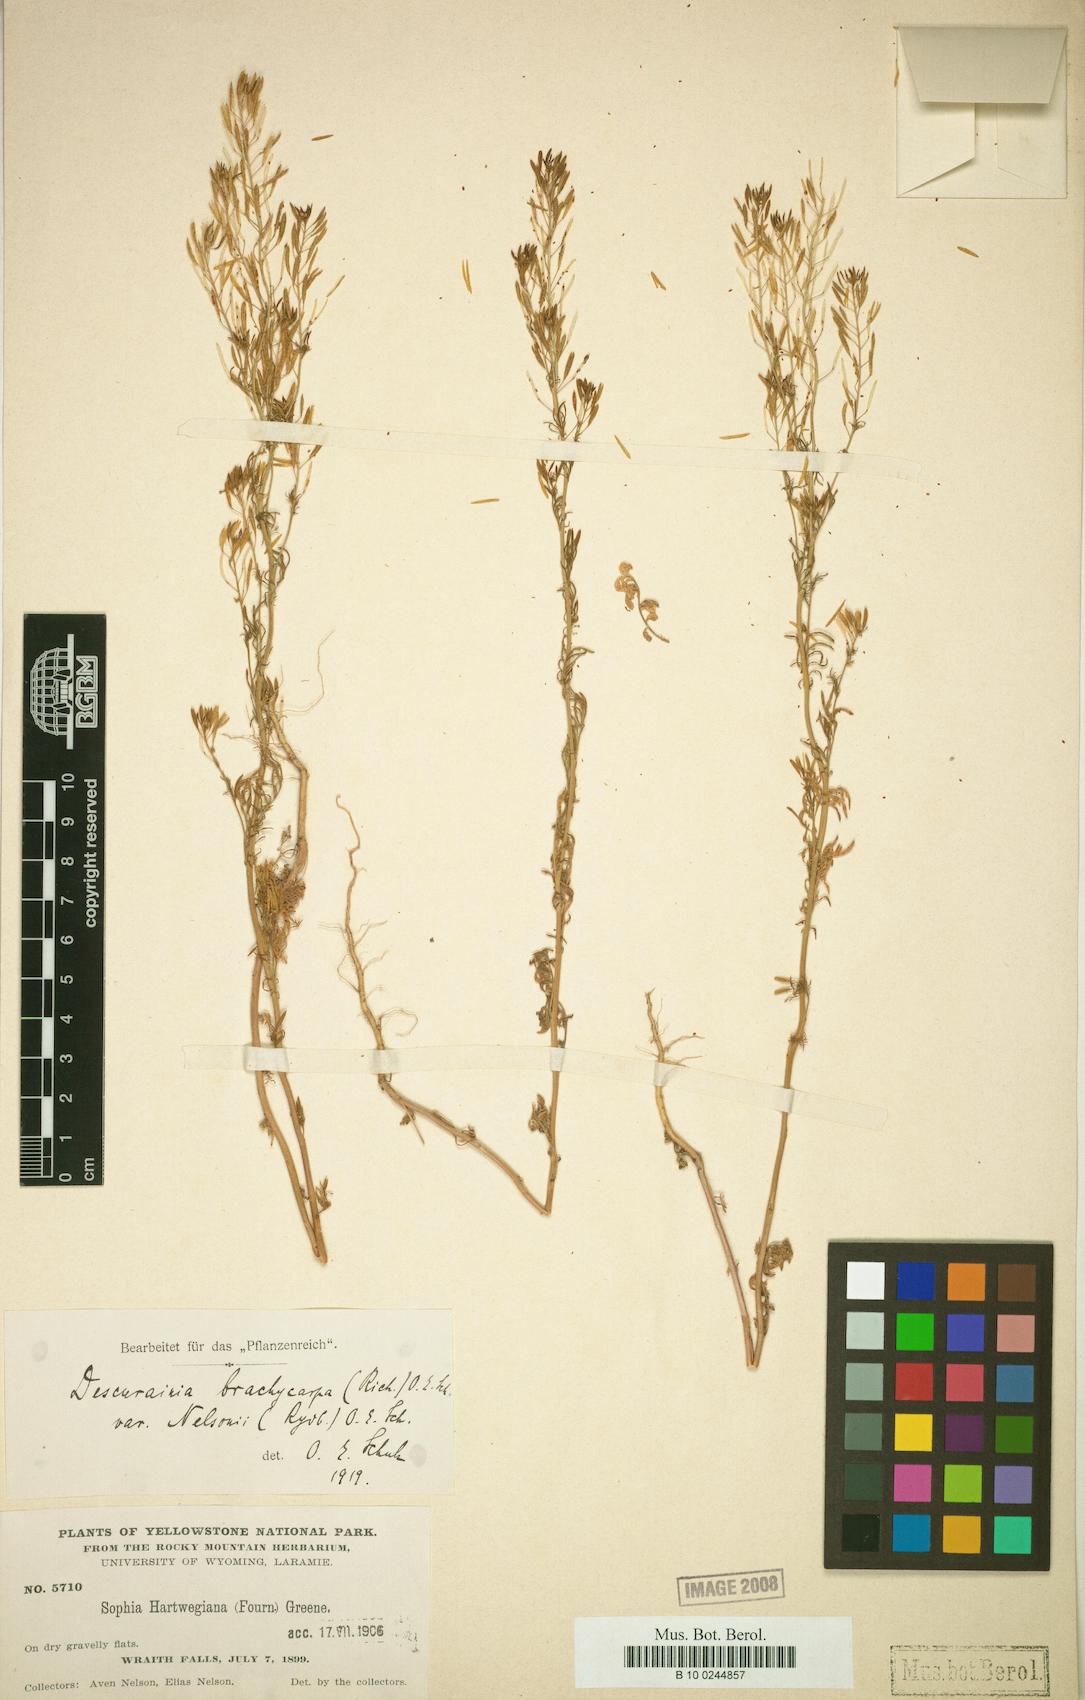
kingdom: Plantae
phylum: Tracheophyta
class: Magnoliopsida
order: Brassicales
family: Brassicaceae
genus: Descurainia
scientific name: Descurainia nelsonii
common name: Nelson's tansy mustard
